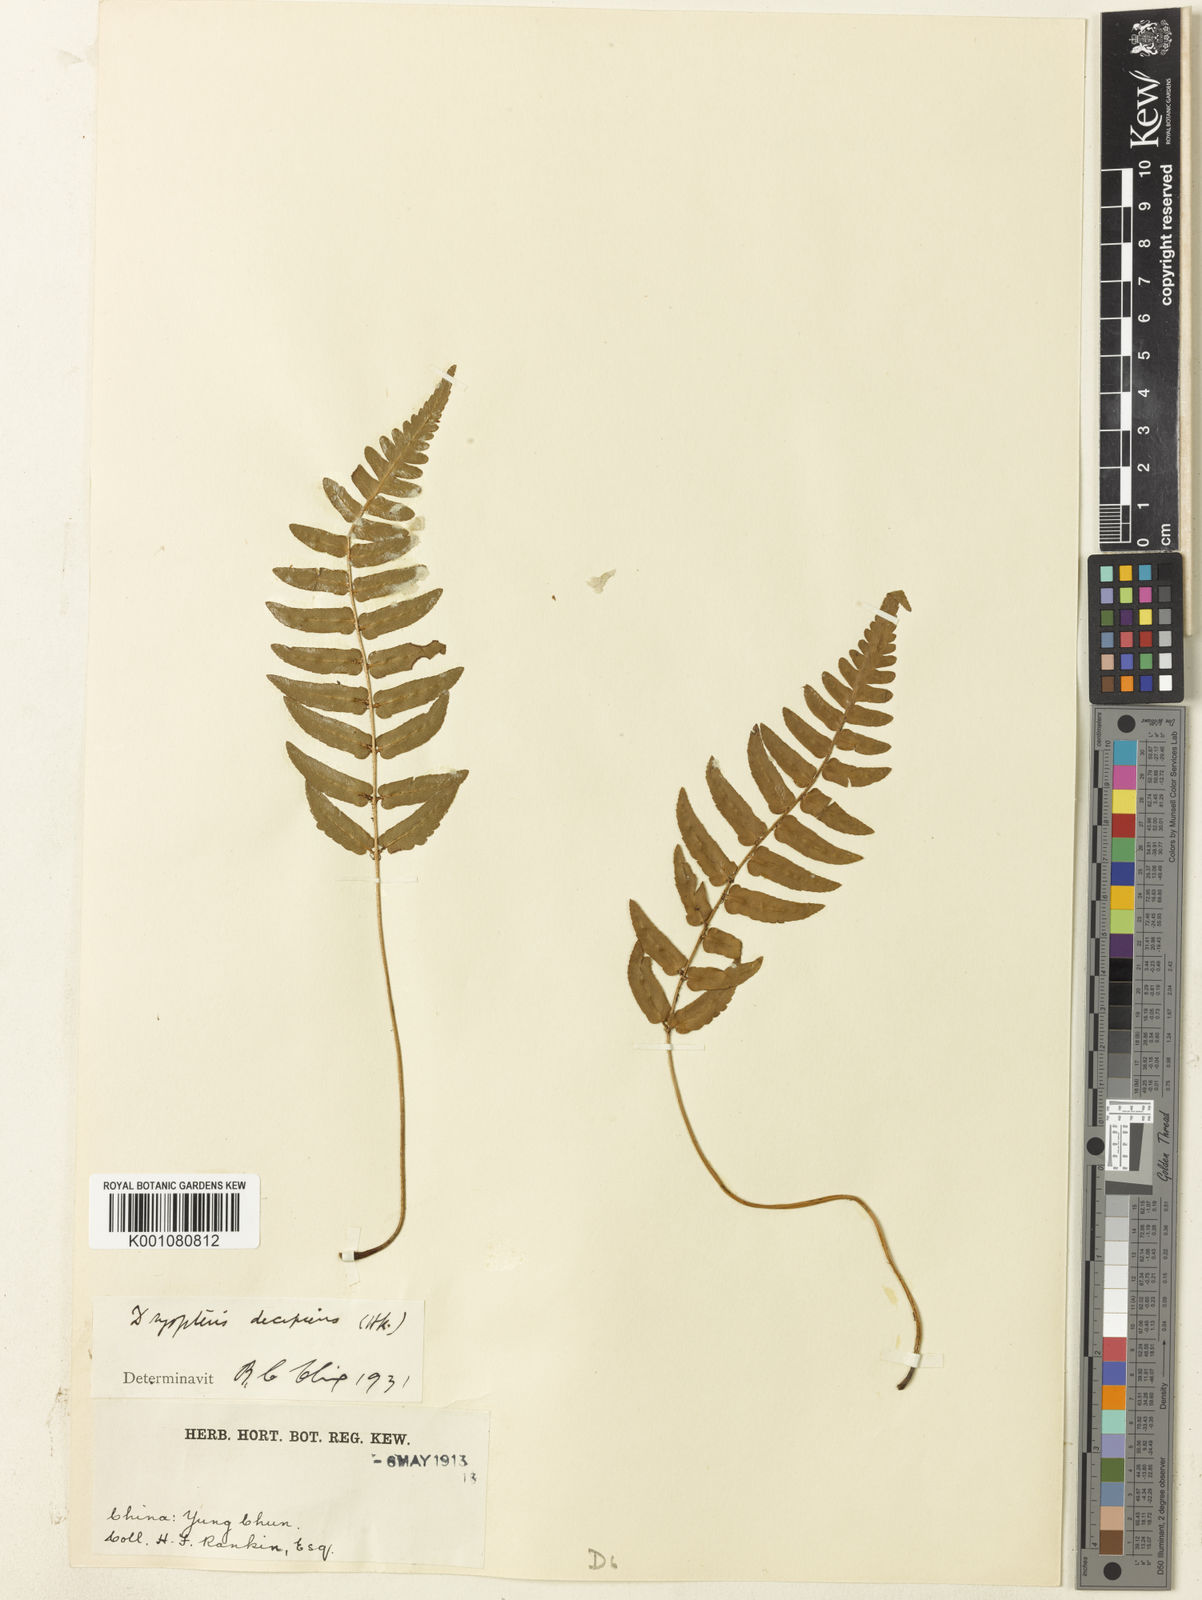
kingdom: Plantae
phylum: Tracheophyta
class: Polypodiopsida
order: Polypodiales
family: Dryopteridaceae
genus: Dryopteris
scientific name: Dryopteris decipiens
